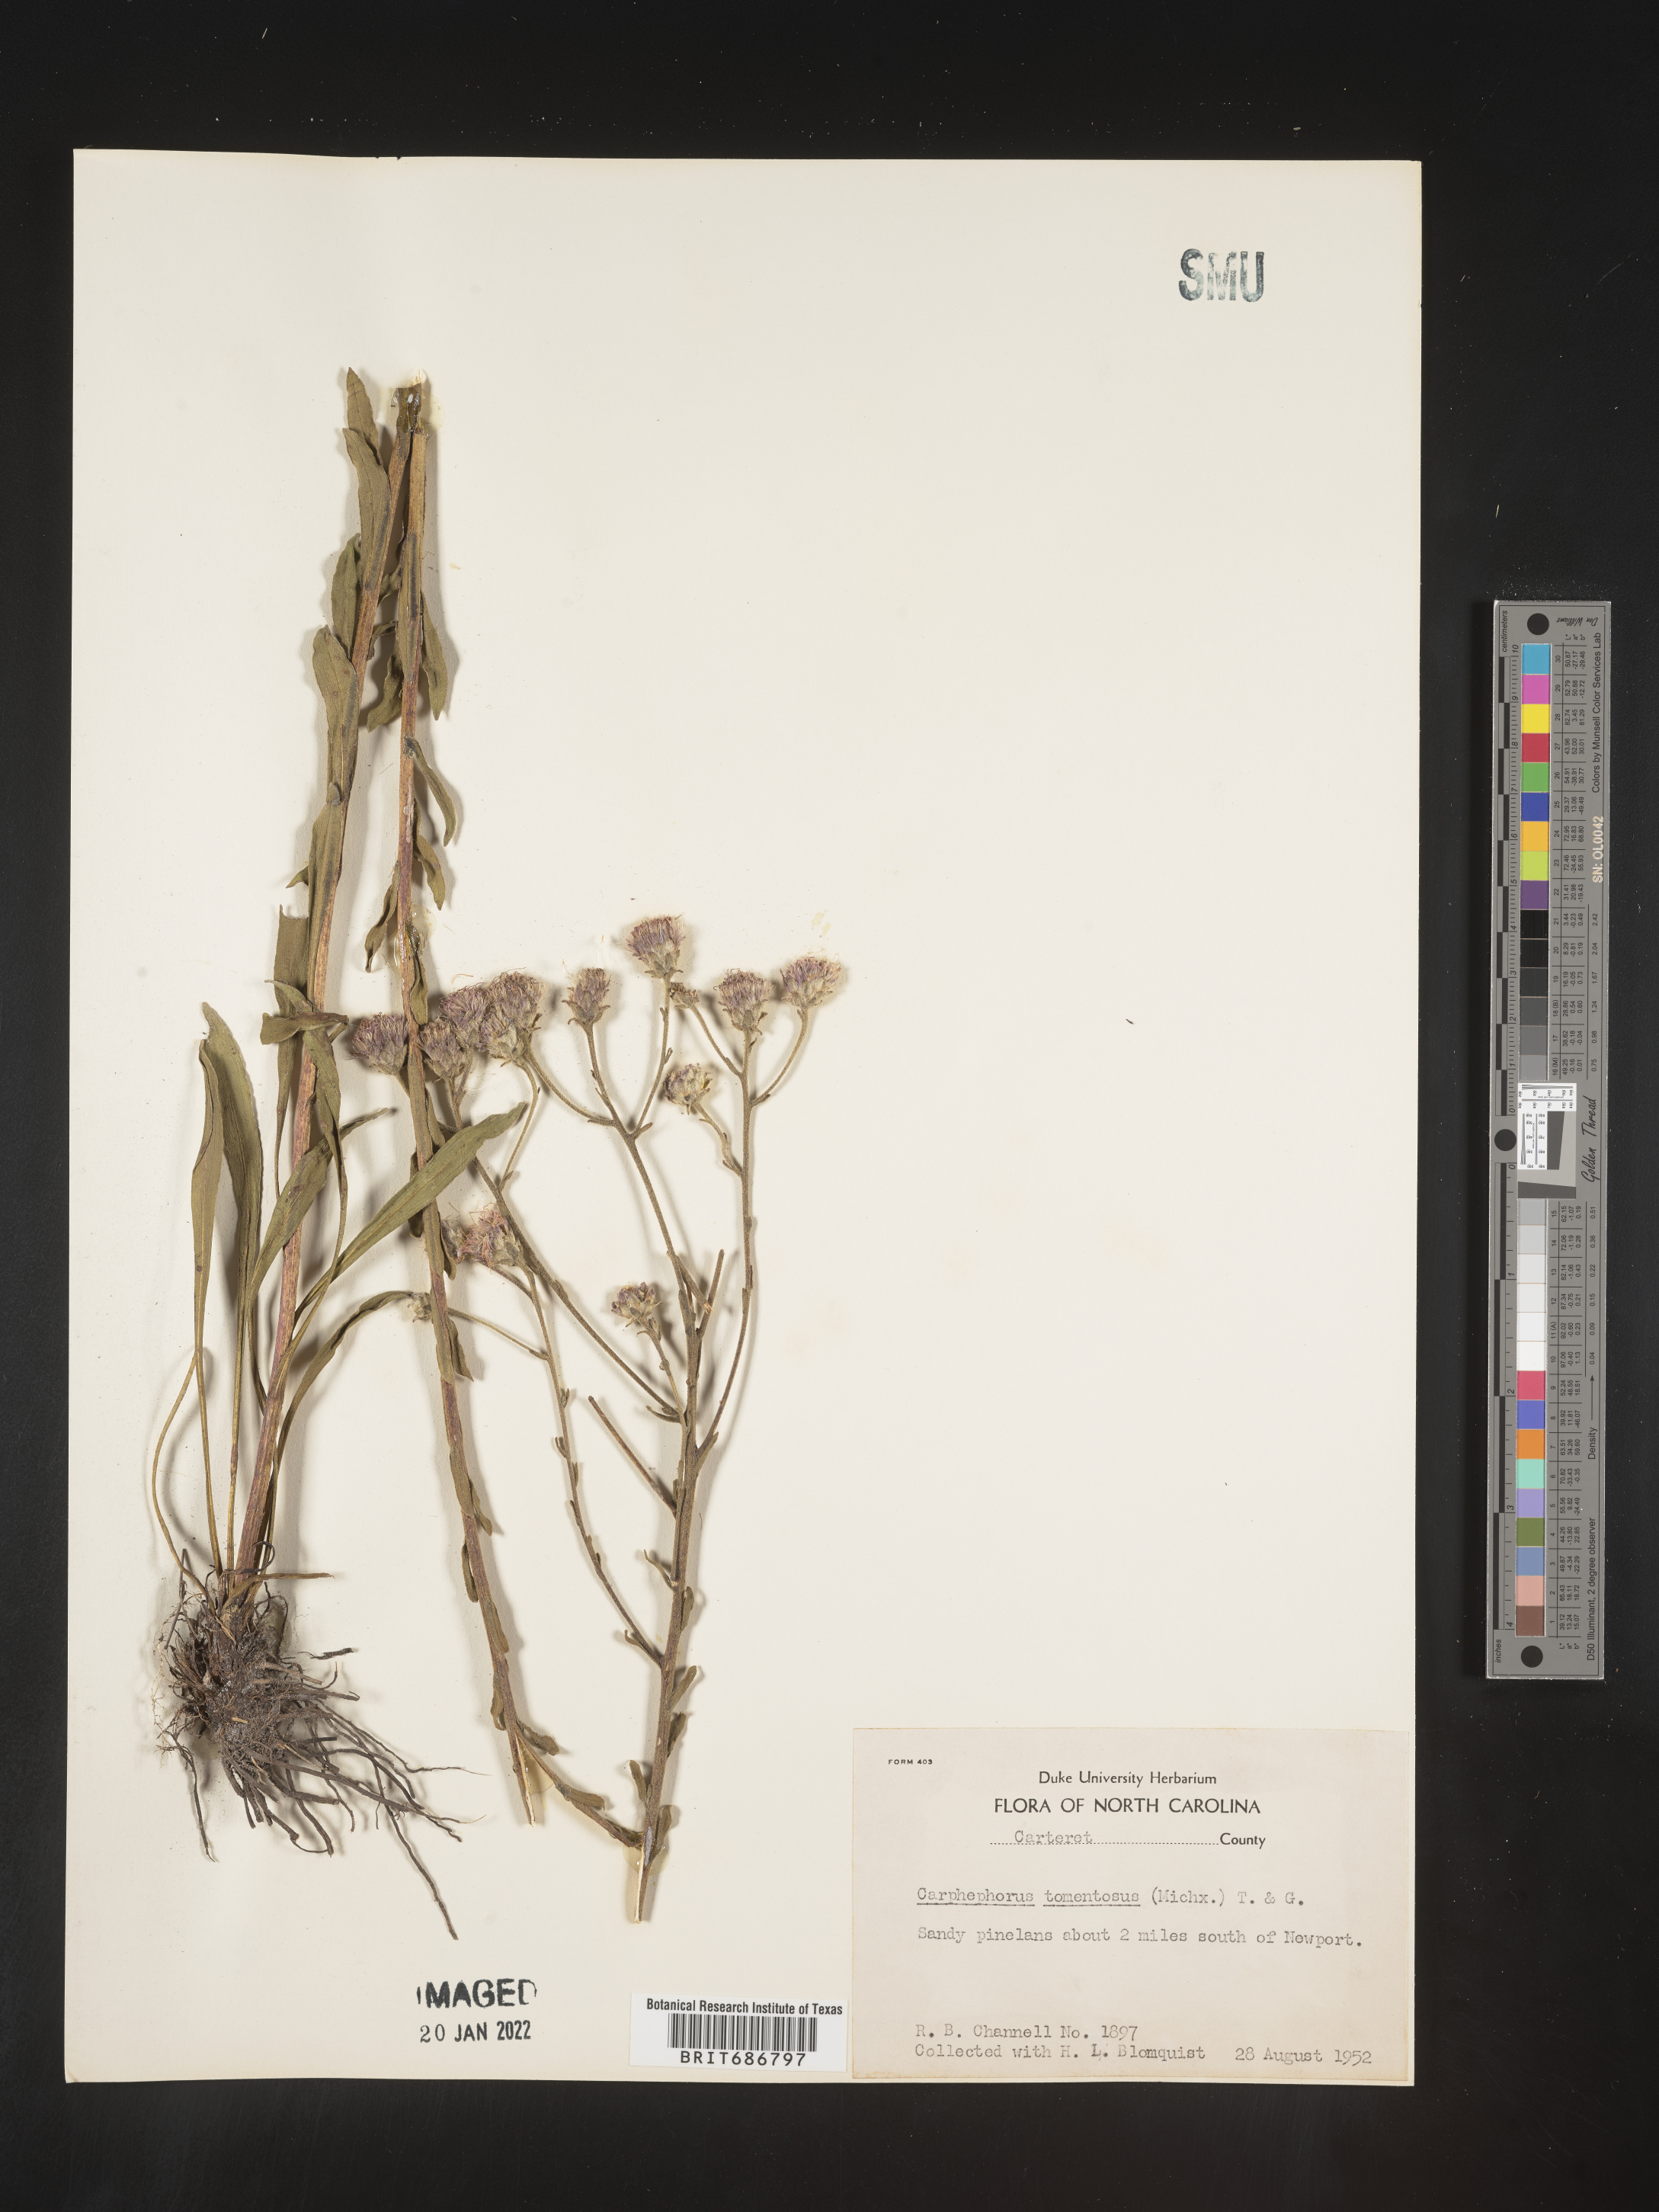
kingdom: Plantae
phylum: Tracheophyta
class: Magnoliopsida
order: Asterales
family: Asteraceae
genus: Carphephorus
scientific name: Carphephorus tomentosus
